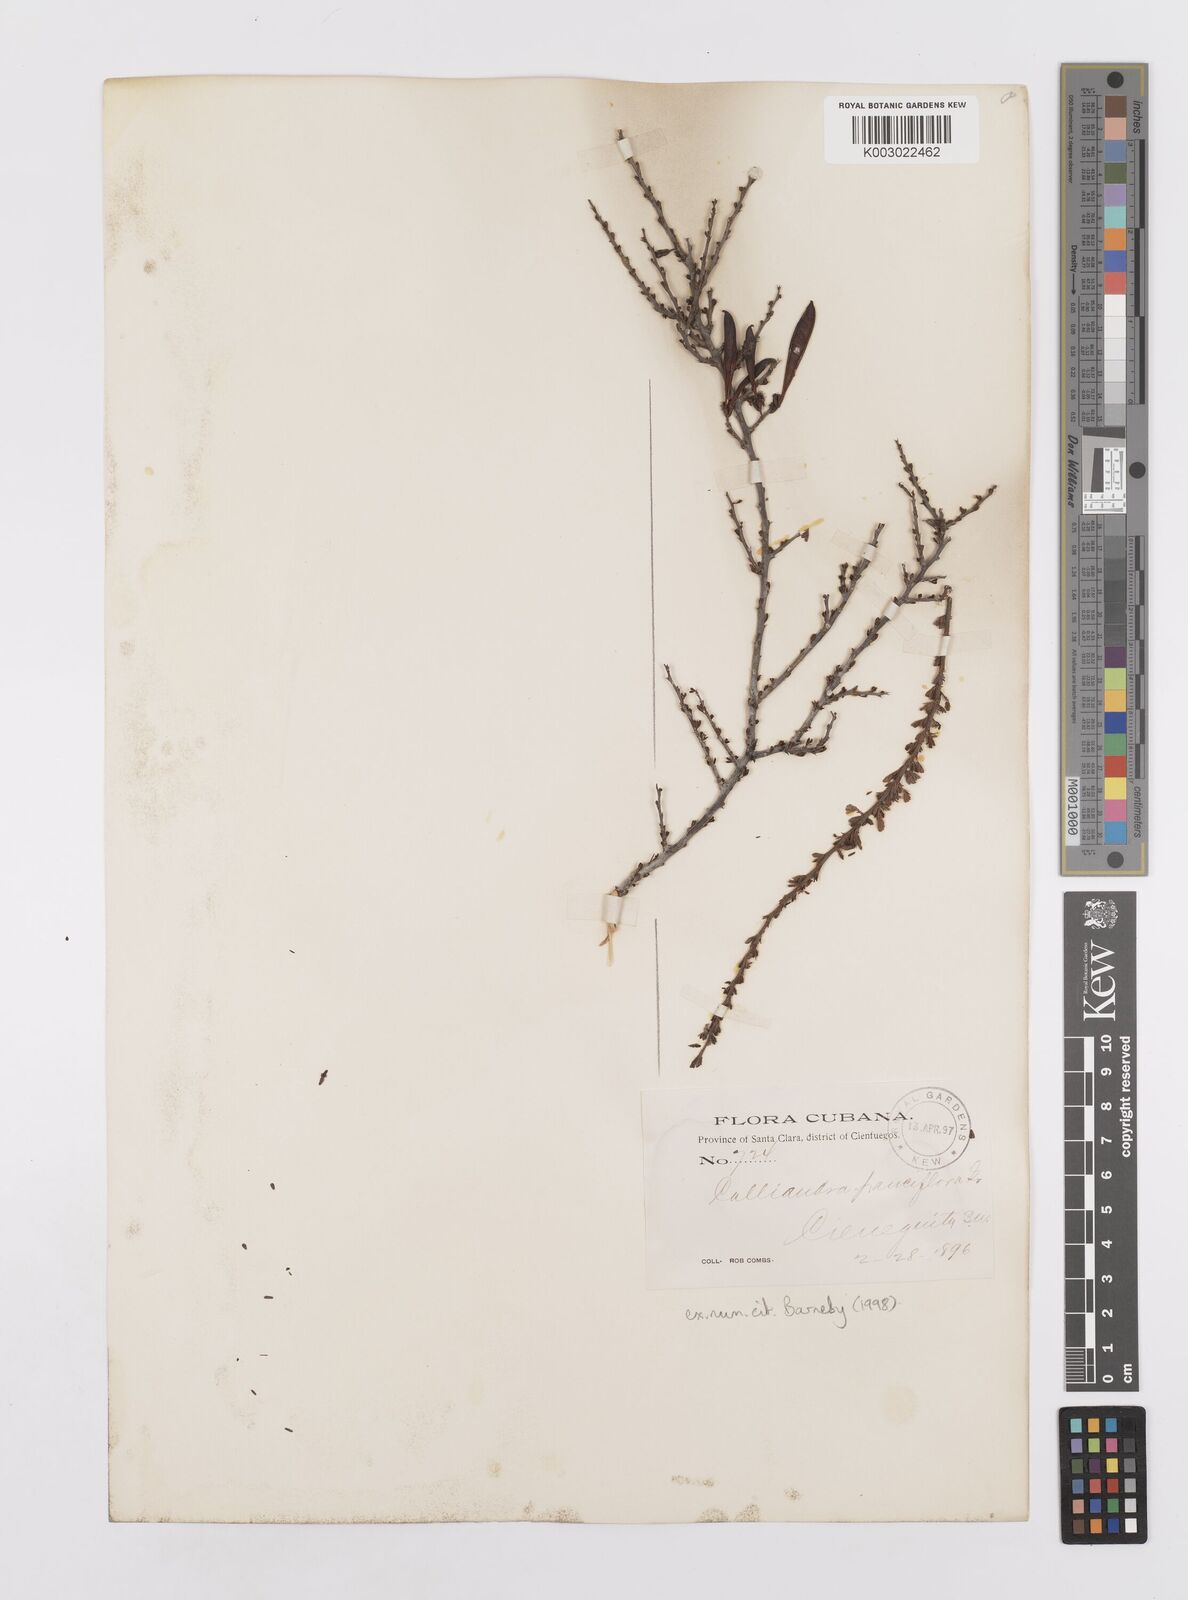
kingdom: Plantae
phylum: Tracheophyta
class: Magnoliopsida
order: Fabales
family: Fabaceae
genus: Calliandra
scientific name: Calliandra pauciflora
